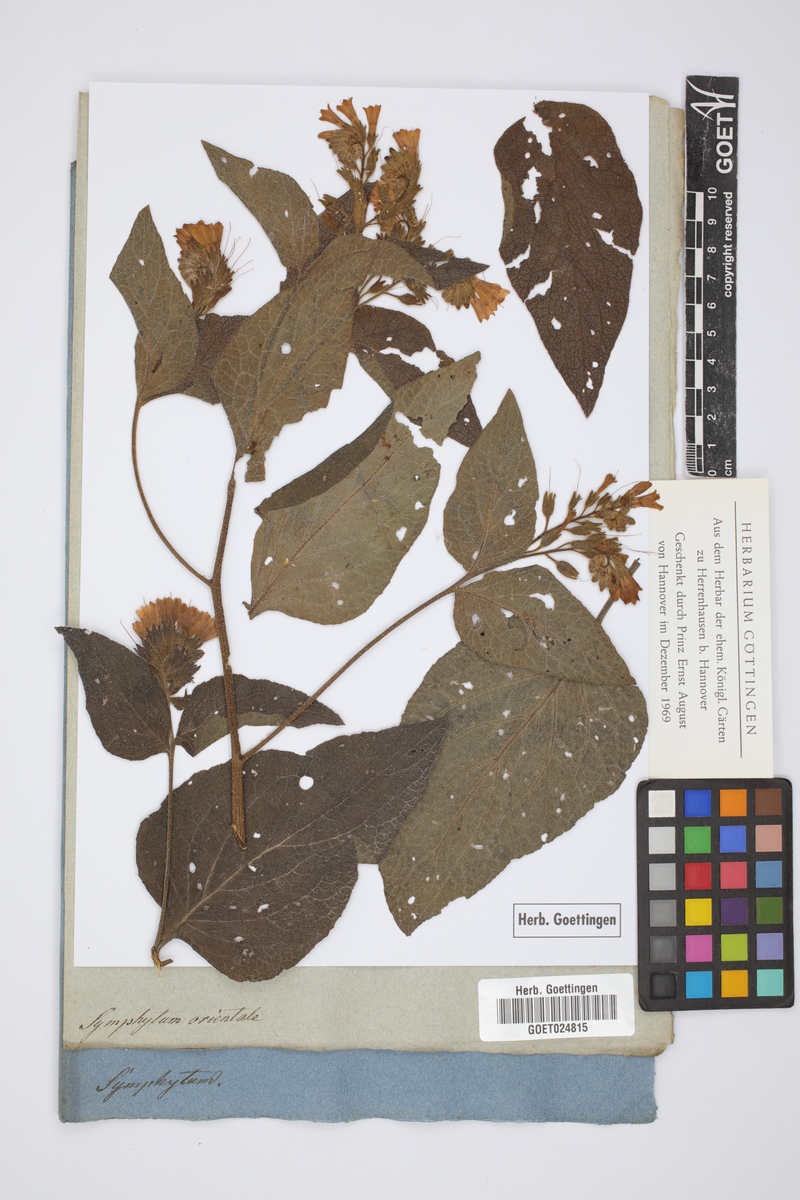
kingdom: Plantae
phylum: Tracheophyta
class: Magnoliopsida
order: Boraginales
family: Boraginaceae
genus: Symphytum
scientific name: Symphytum orientale
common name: White comfrey
